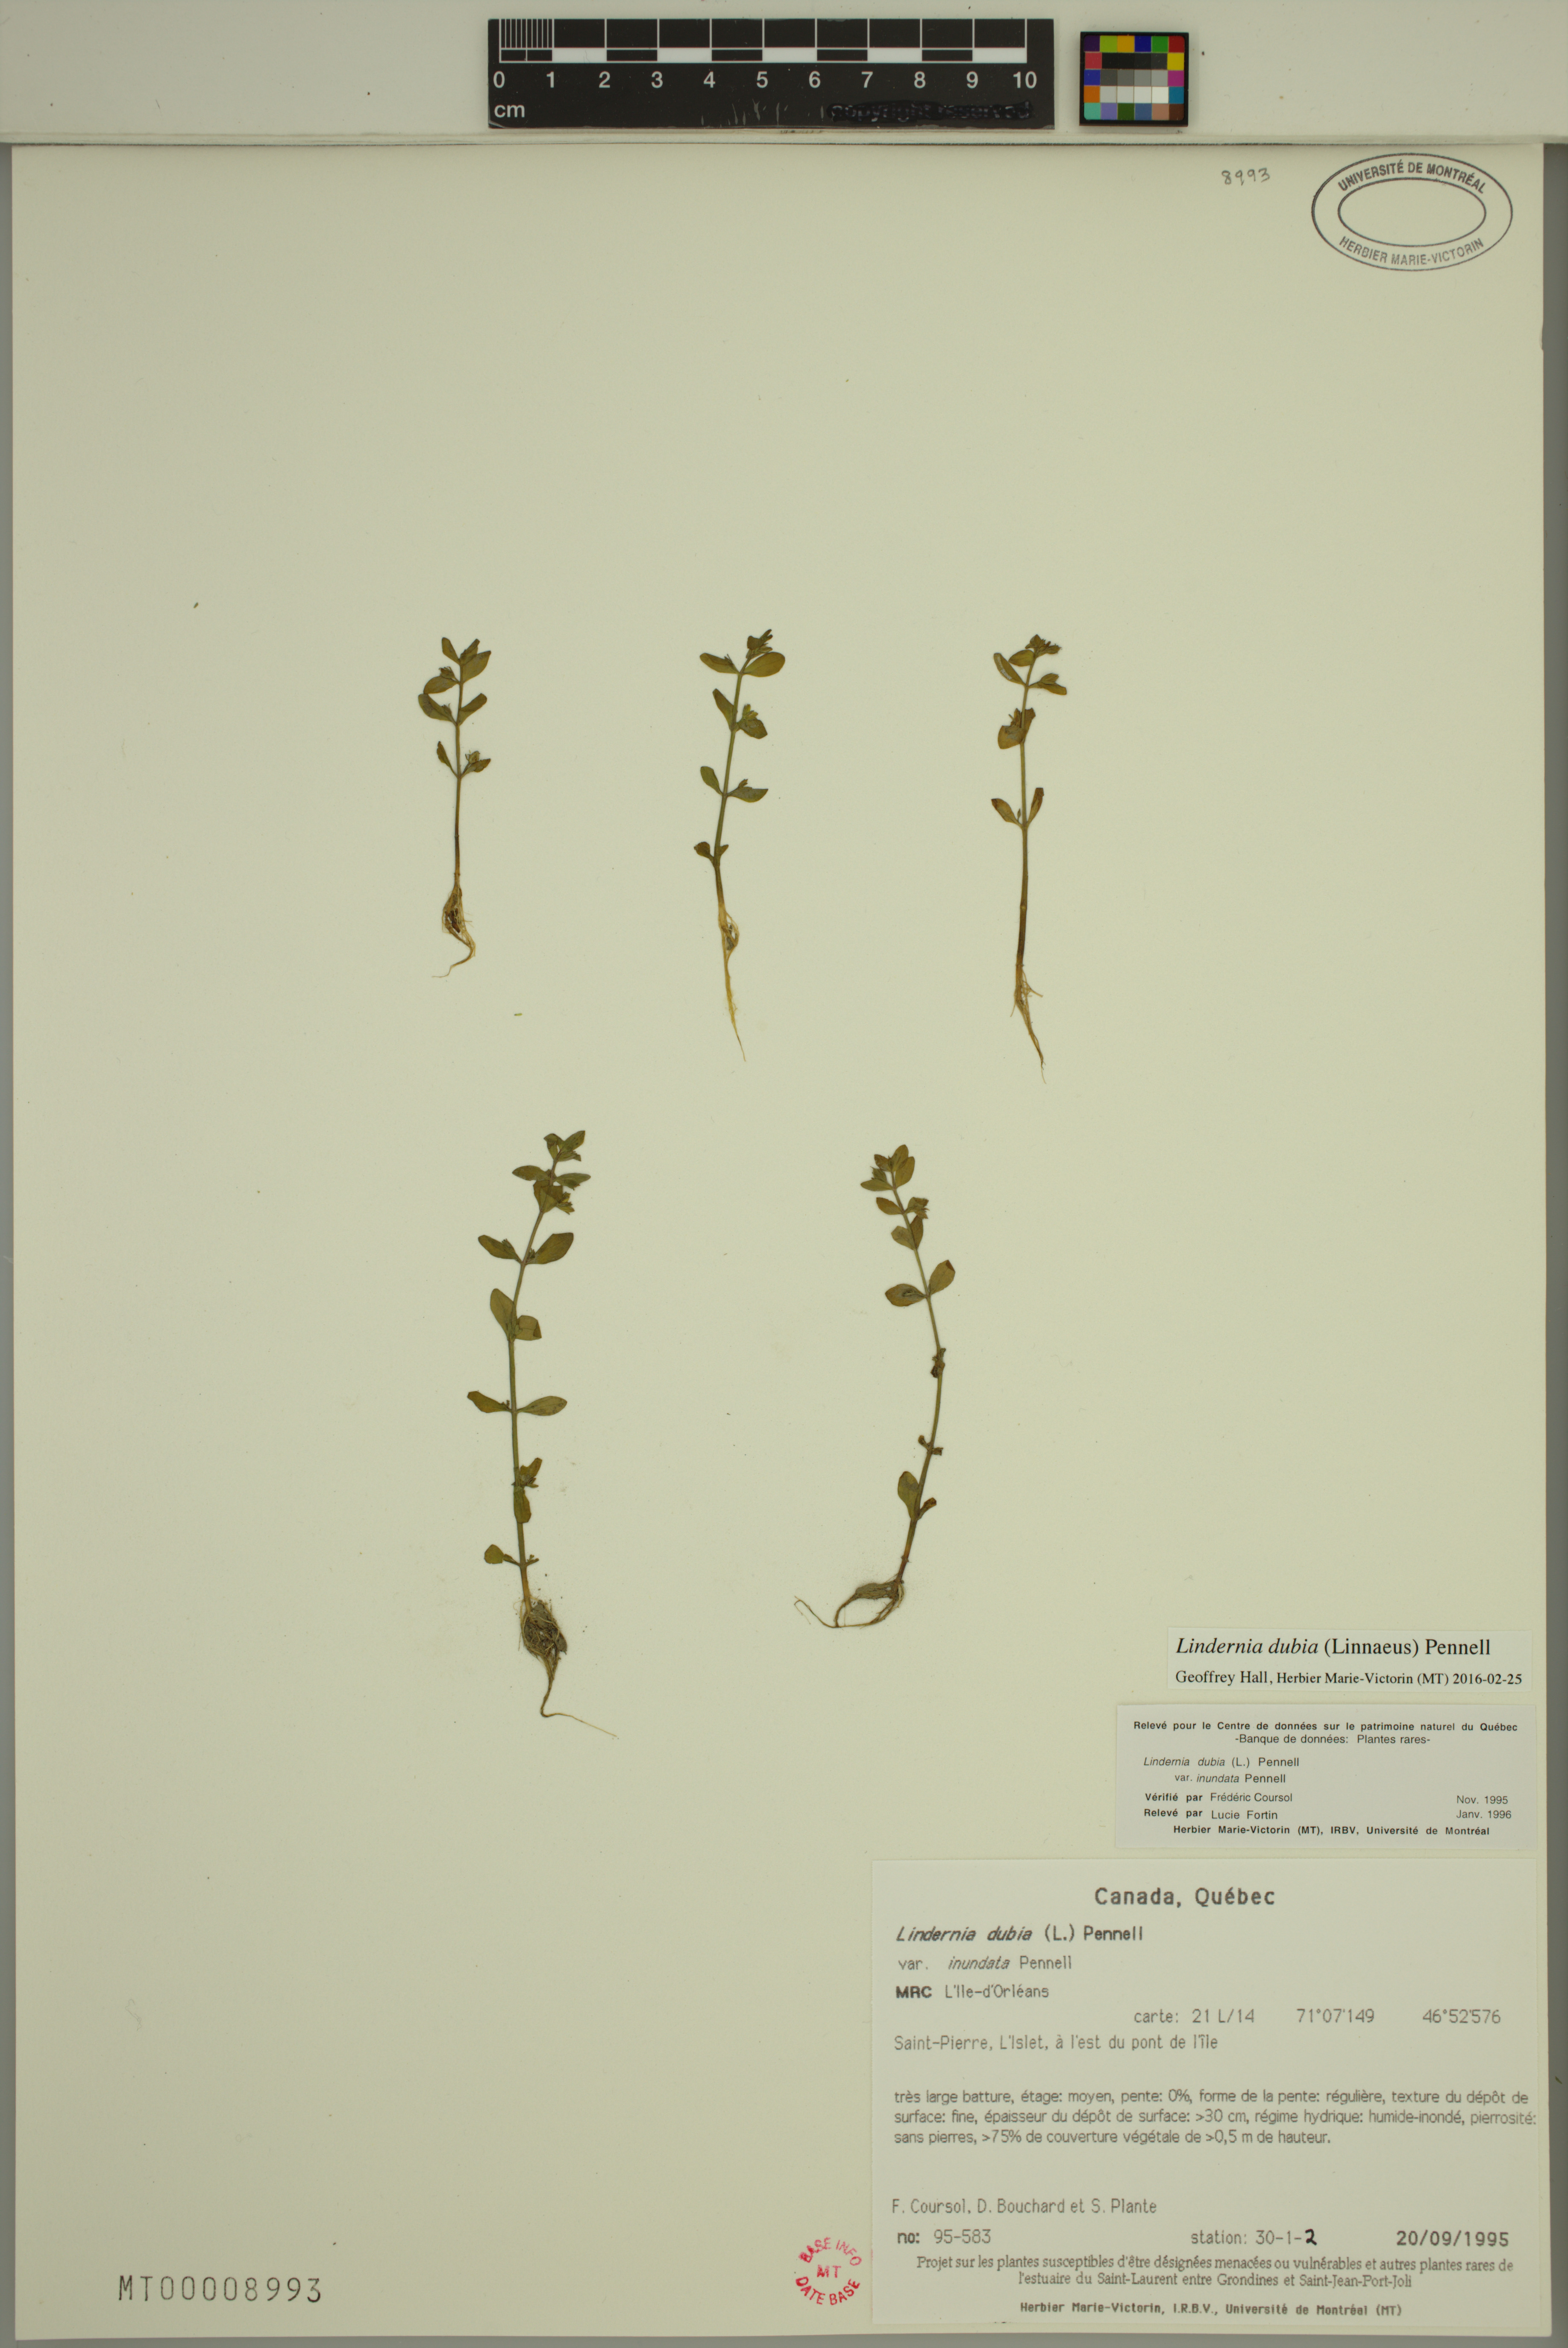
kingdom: Plantae
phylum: Tracheophyta
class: Magnoliopsida
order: Lamiales
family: Linderniaceae
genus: Lindernia
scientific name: Lindernia dubia
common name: Annual false pimpernel
